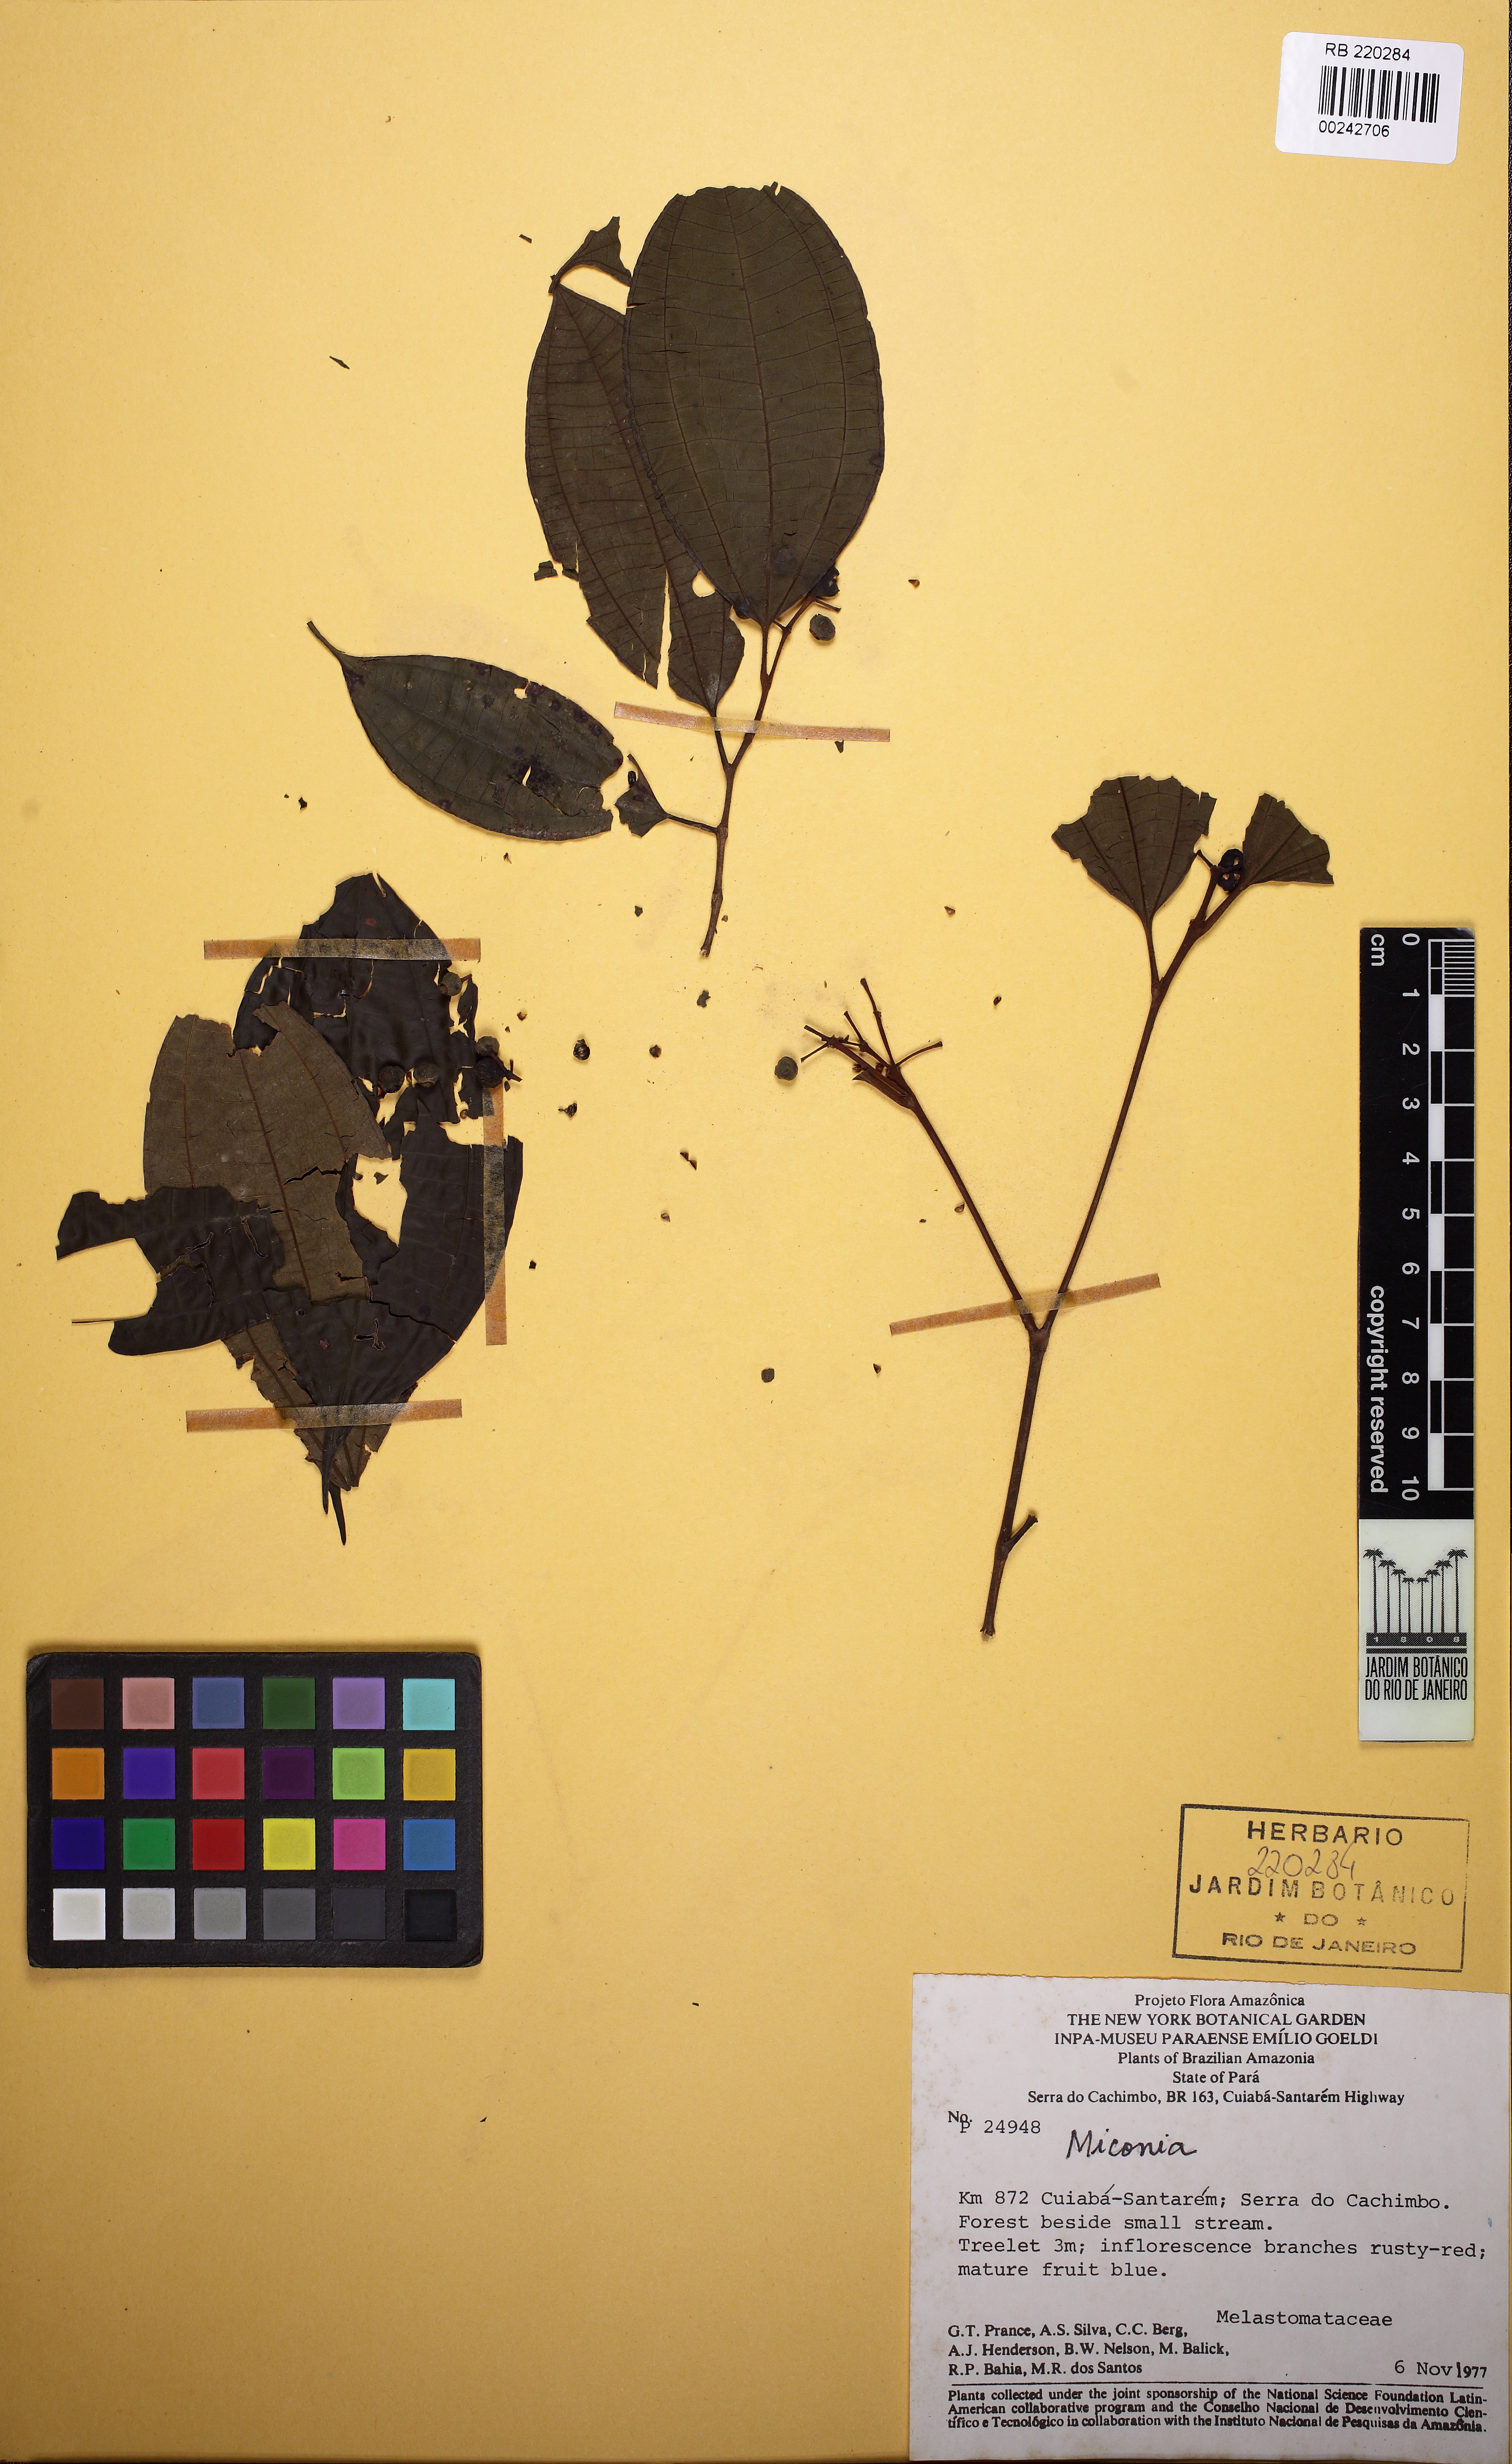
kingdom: Plantae
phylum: Tracheophyta
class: Magnoliopsida
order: Myrtales
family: Melastomataceae
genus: Miconia
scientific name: Miconia
